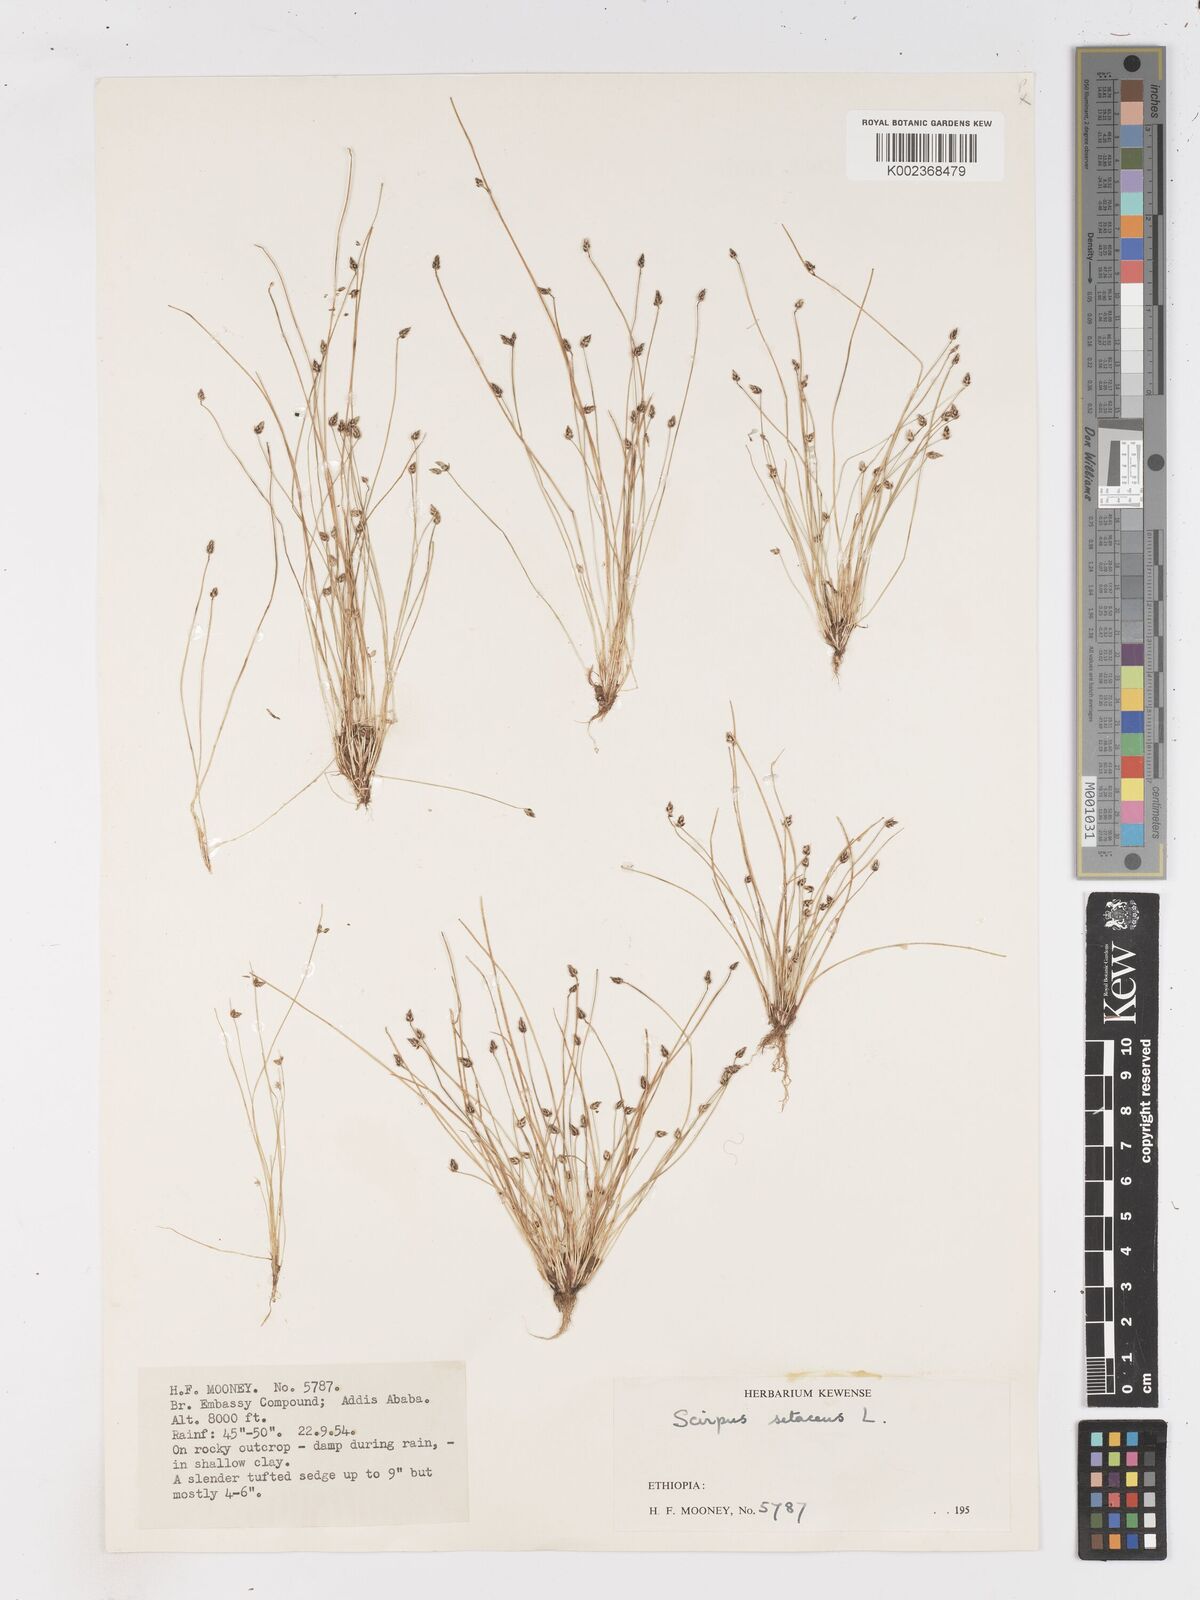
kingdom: Plantae
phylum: Tracheophyta
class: Liliopsida
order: Poales
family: Cyperaceae
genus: Isolepis
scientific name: Isolepis setacea
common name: Bristle club-rush
